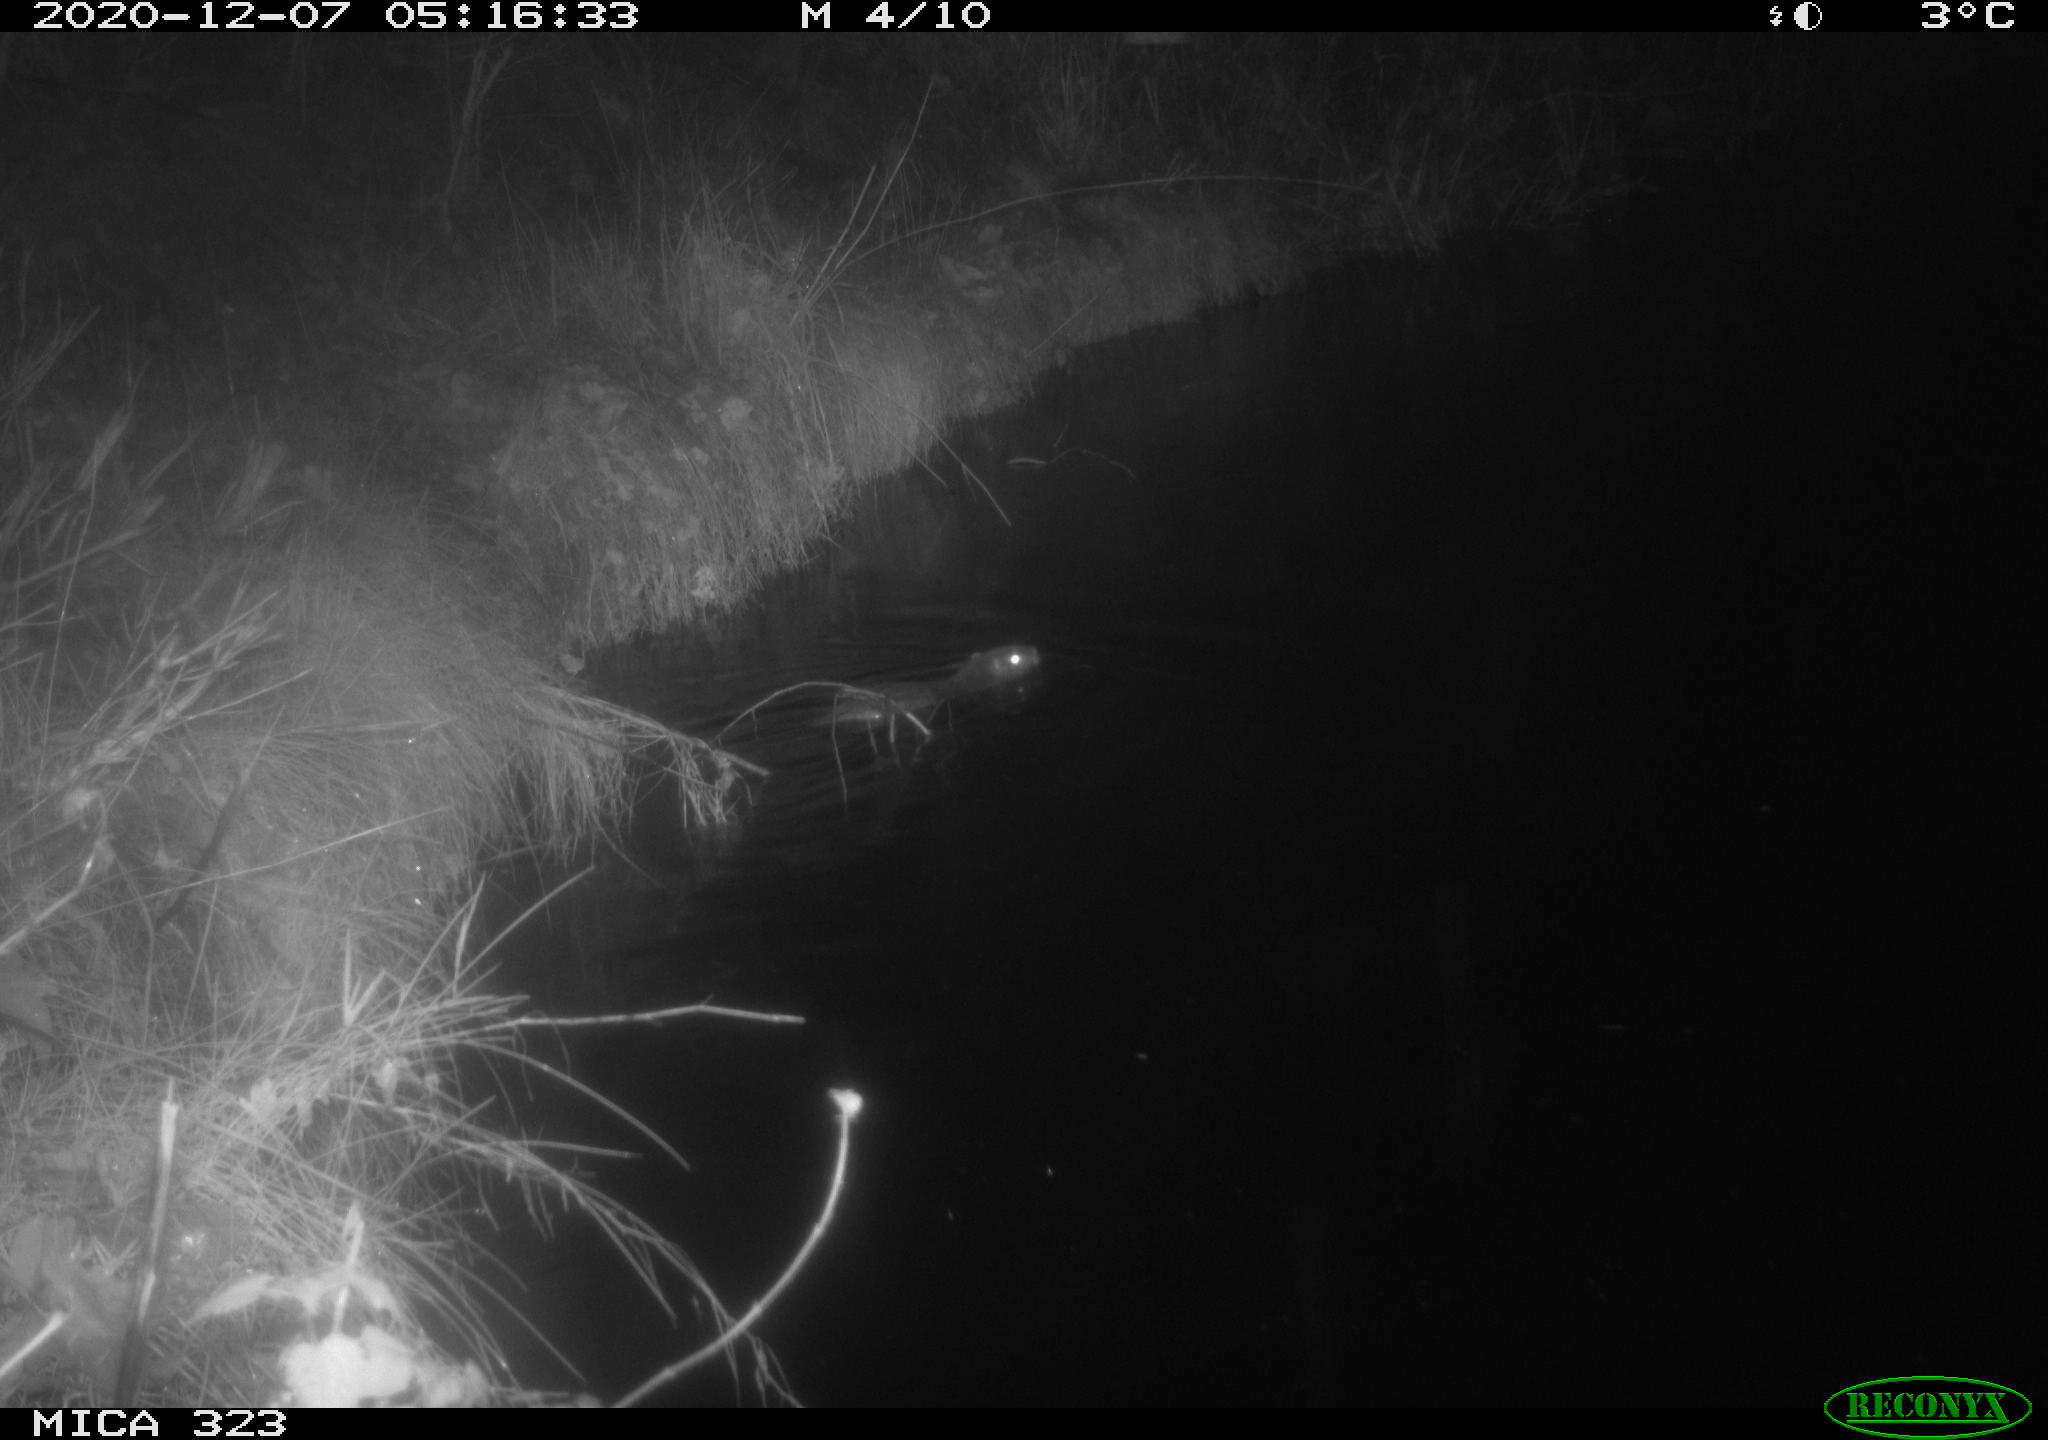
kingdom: Animalia
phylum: Chordata
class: Mammalia
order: Rodentia
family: Myocastoridae
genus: Myocastor
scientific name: Myocastor coypus
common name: Coypu
